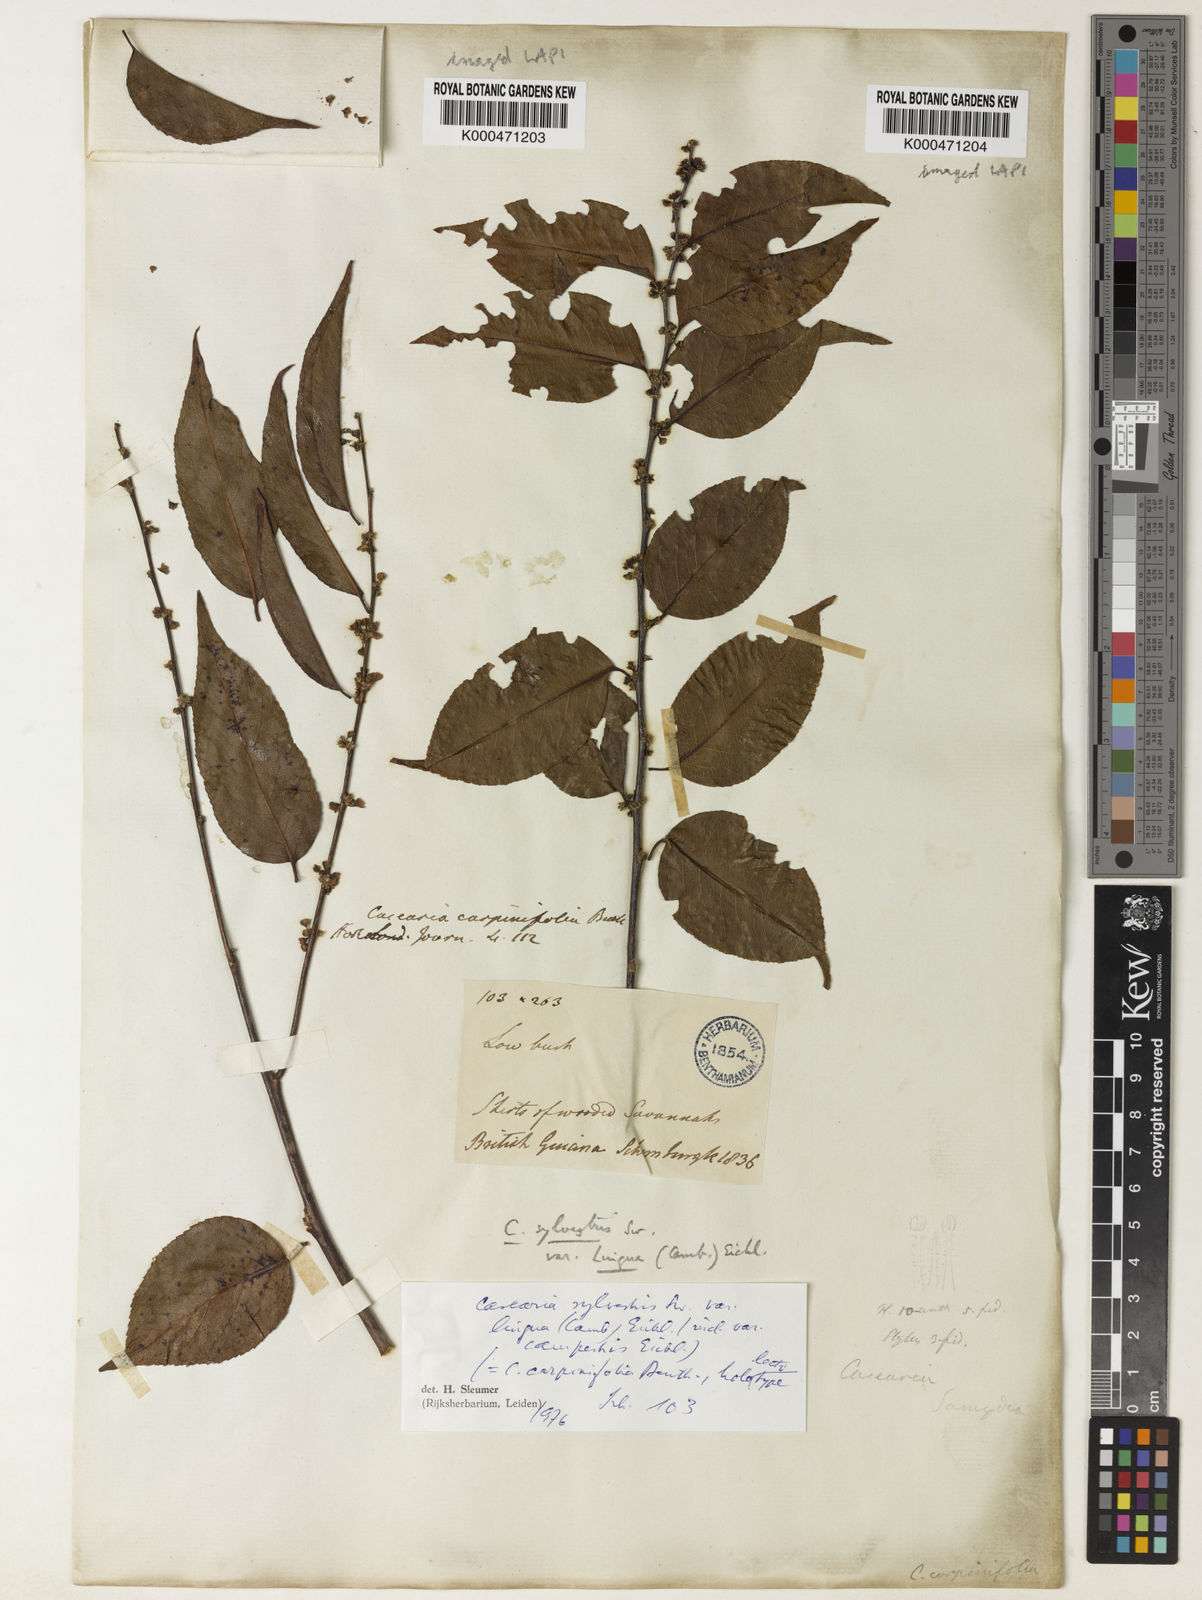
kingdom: Plantae
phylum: Tracheophyta
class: Magnoliopsida
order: Malpighiales
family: Salicaceae
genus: Casearia
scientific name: Casearia sylvestris
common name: Wild sage
